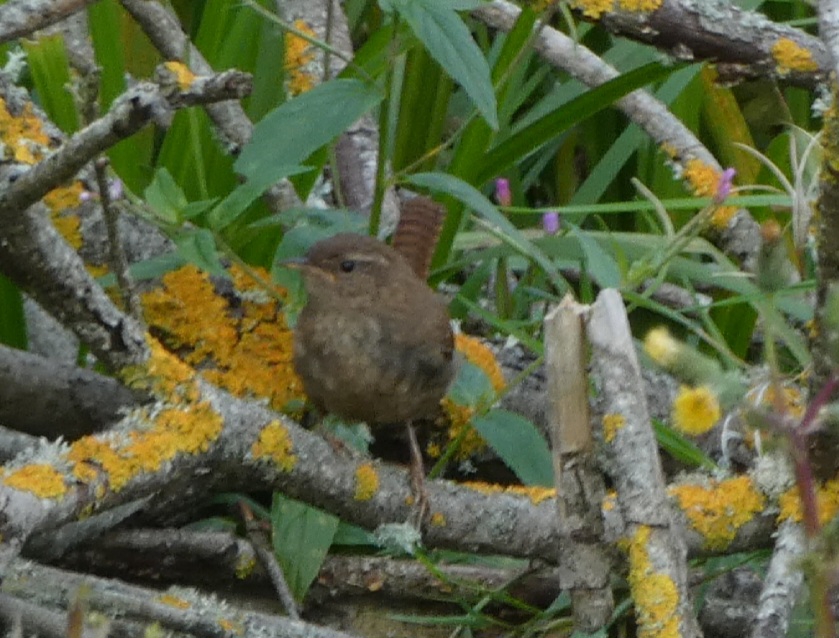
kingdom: Animalia
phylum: Chordata
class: Aves
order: Passeriformes
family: Troglodytidae
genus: Troglodytes
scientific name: Troglodytes troglodytes
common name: Gærdesmutte
